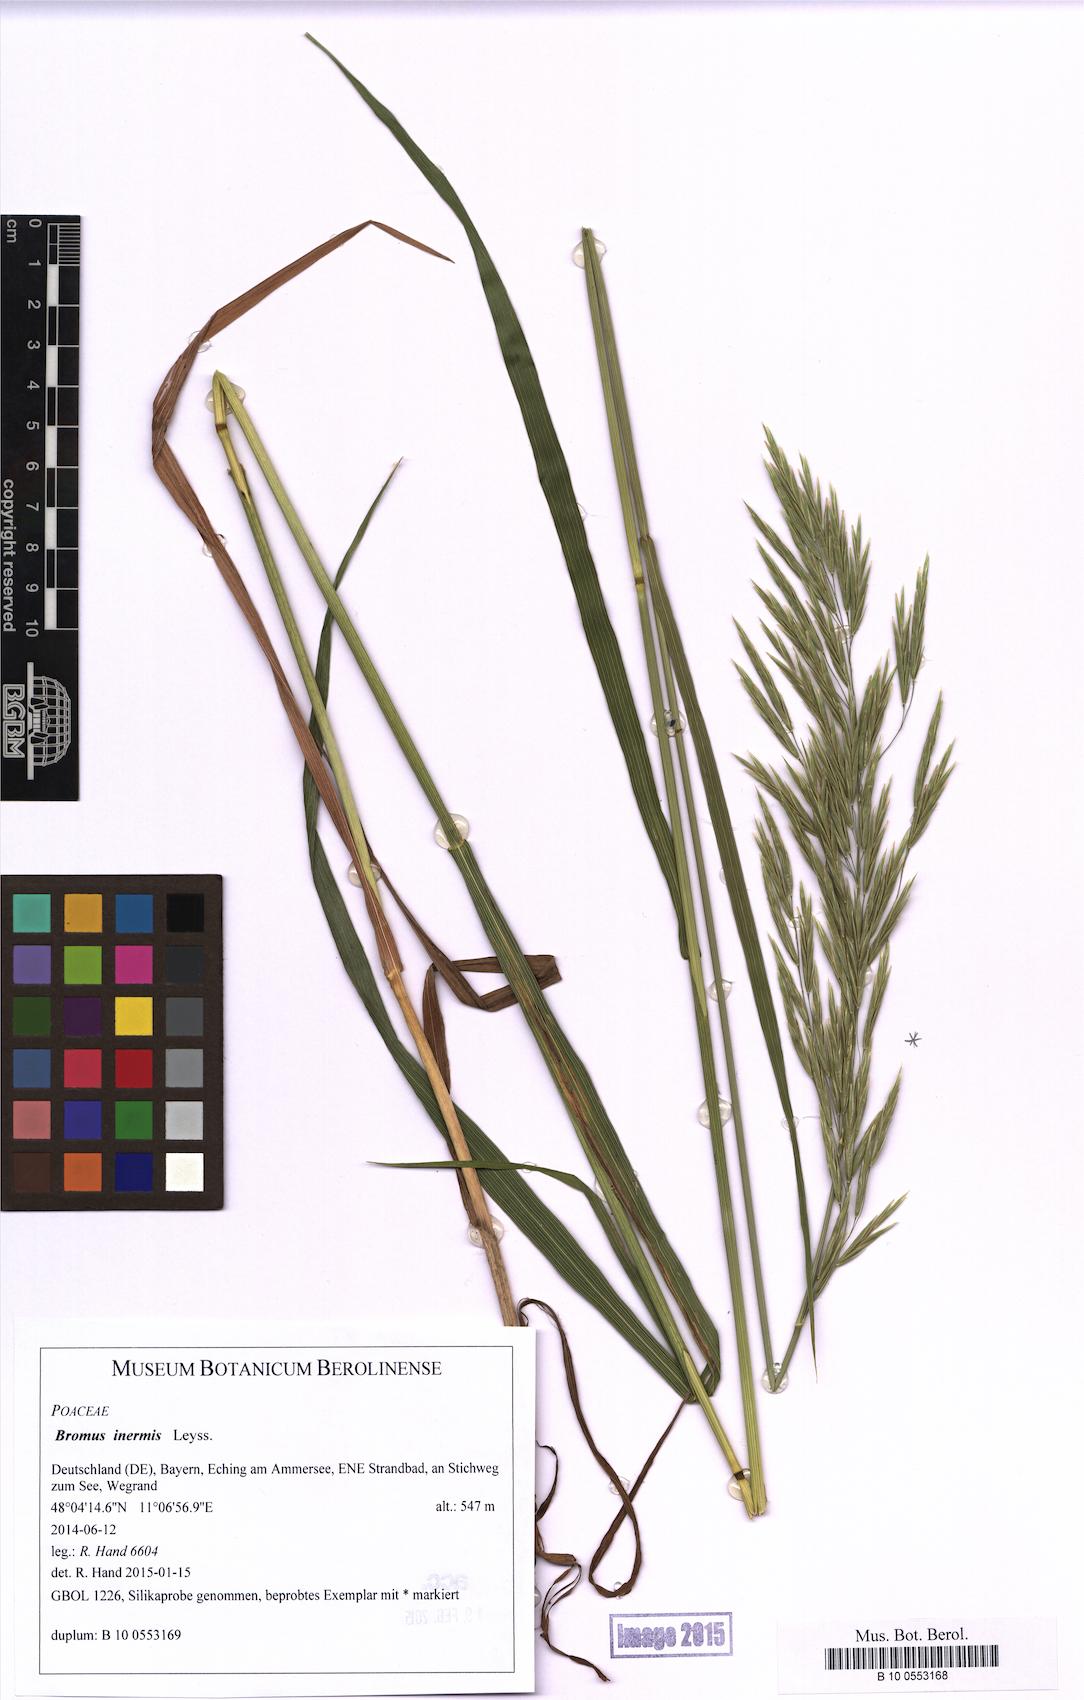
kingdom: Plantae
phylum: Tracheophyta
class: Liliopsida
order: Poales
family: Poaceae
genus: Bromus
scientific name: Bromus inermis
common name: Smooth brome
